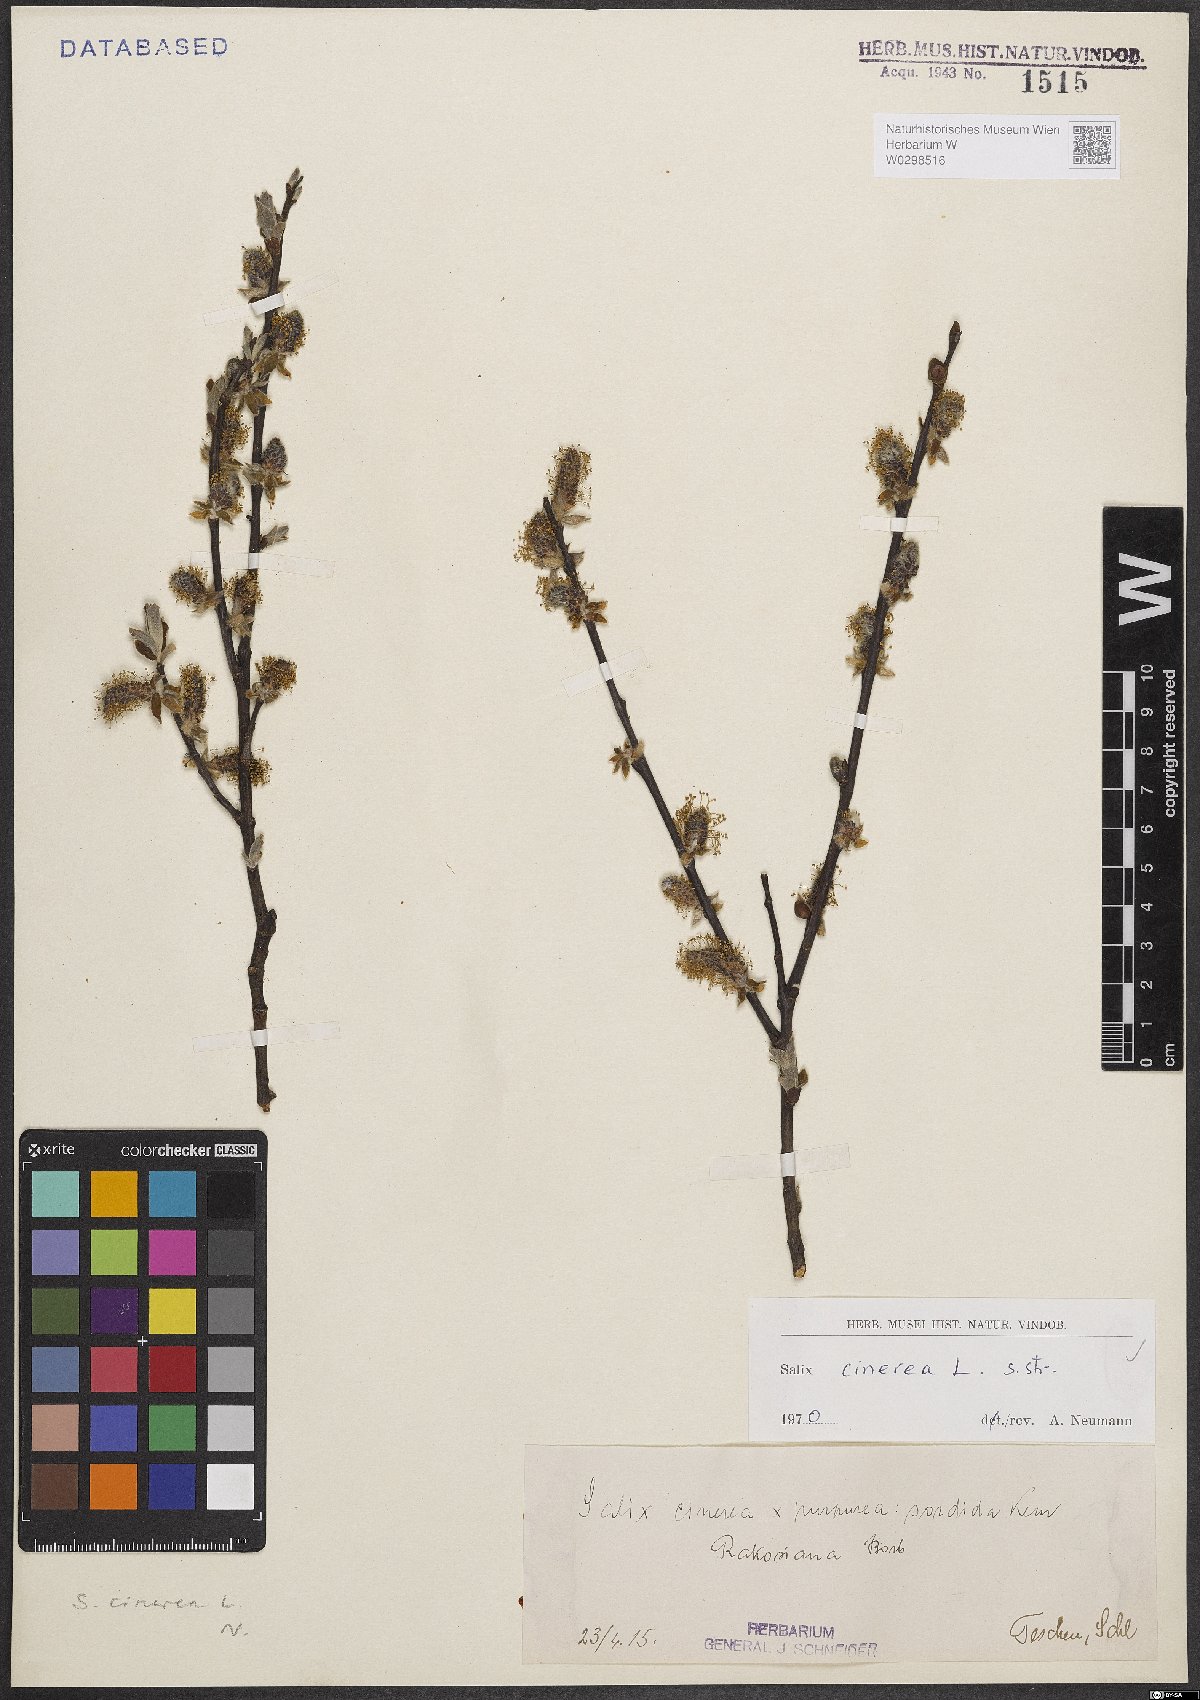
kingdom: Plantae
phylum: Tracheophyta
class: Magnoliopsida
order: Malpighiales
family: Salicaceae
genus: Salix
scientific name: Salix cinerea
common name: Common sallow
